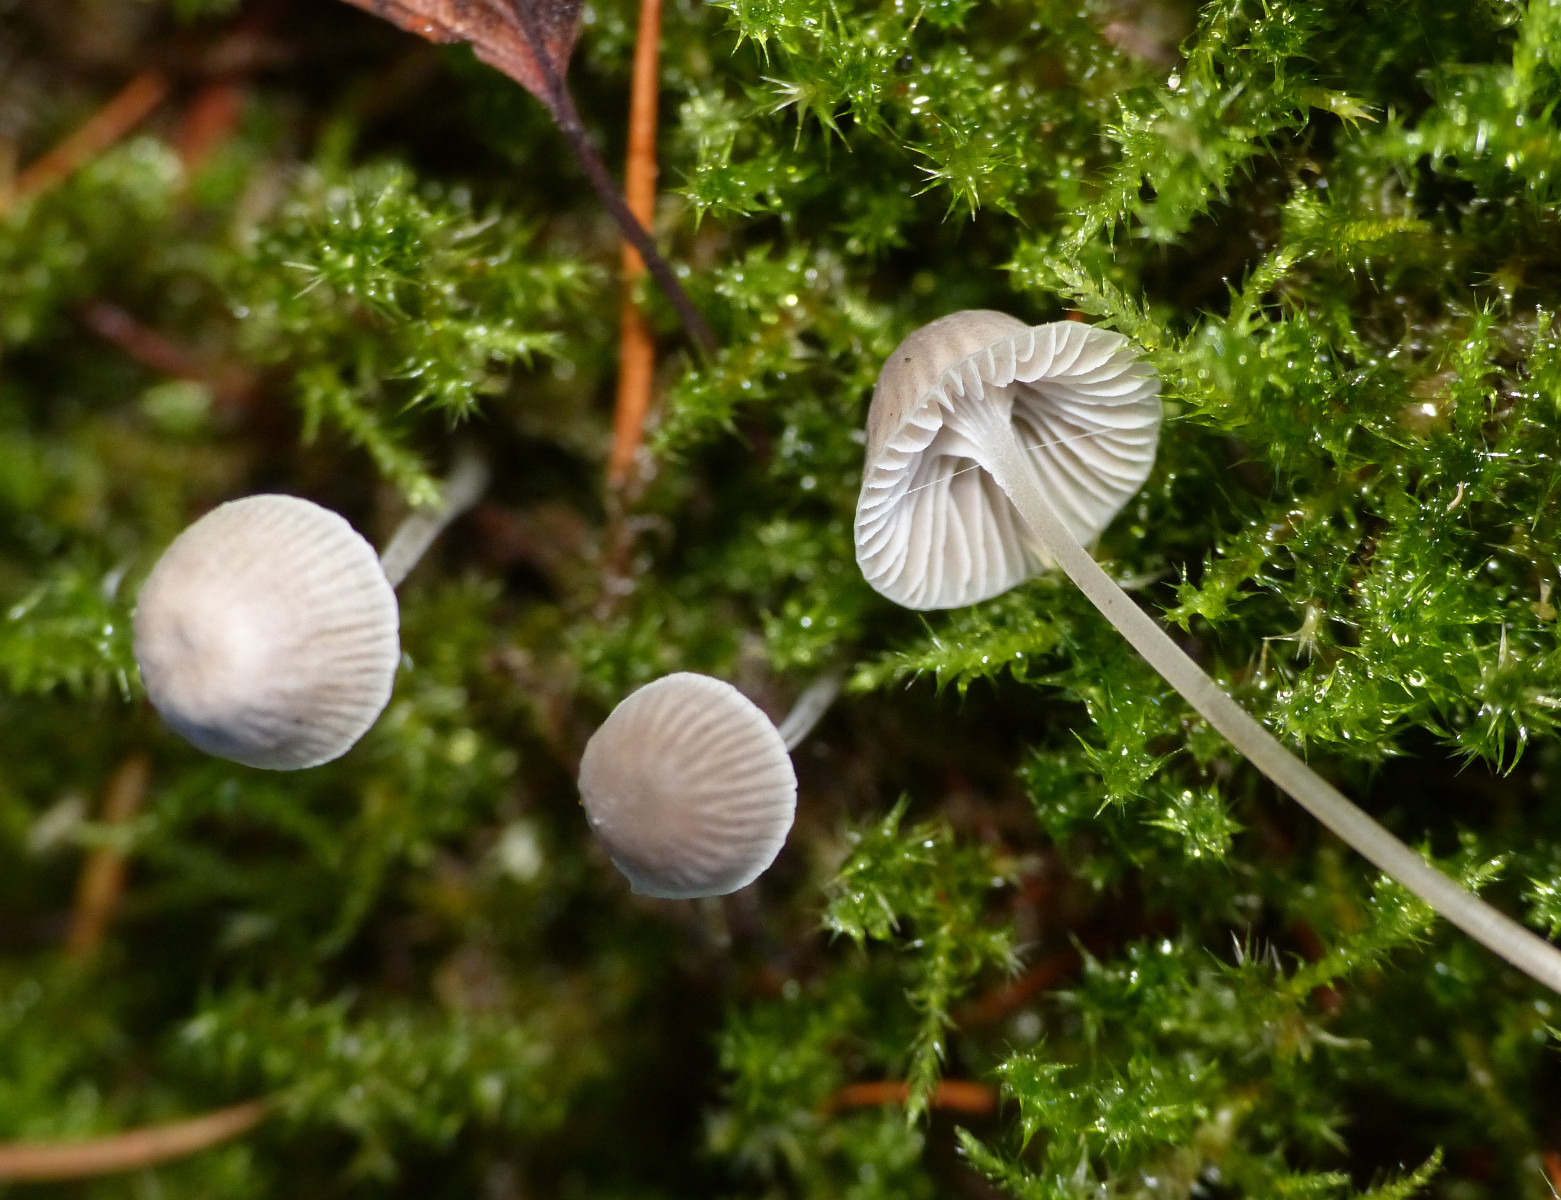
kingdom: Fungi
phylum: Basidiomycota
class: Agaricomycetes
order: Agaricales
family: Mycenaceae
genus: Mycena
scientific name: Mycena cinerella
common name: mel-huesvamp
